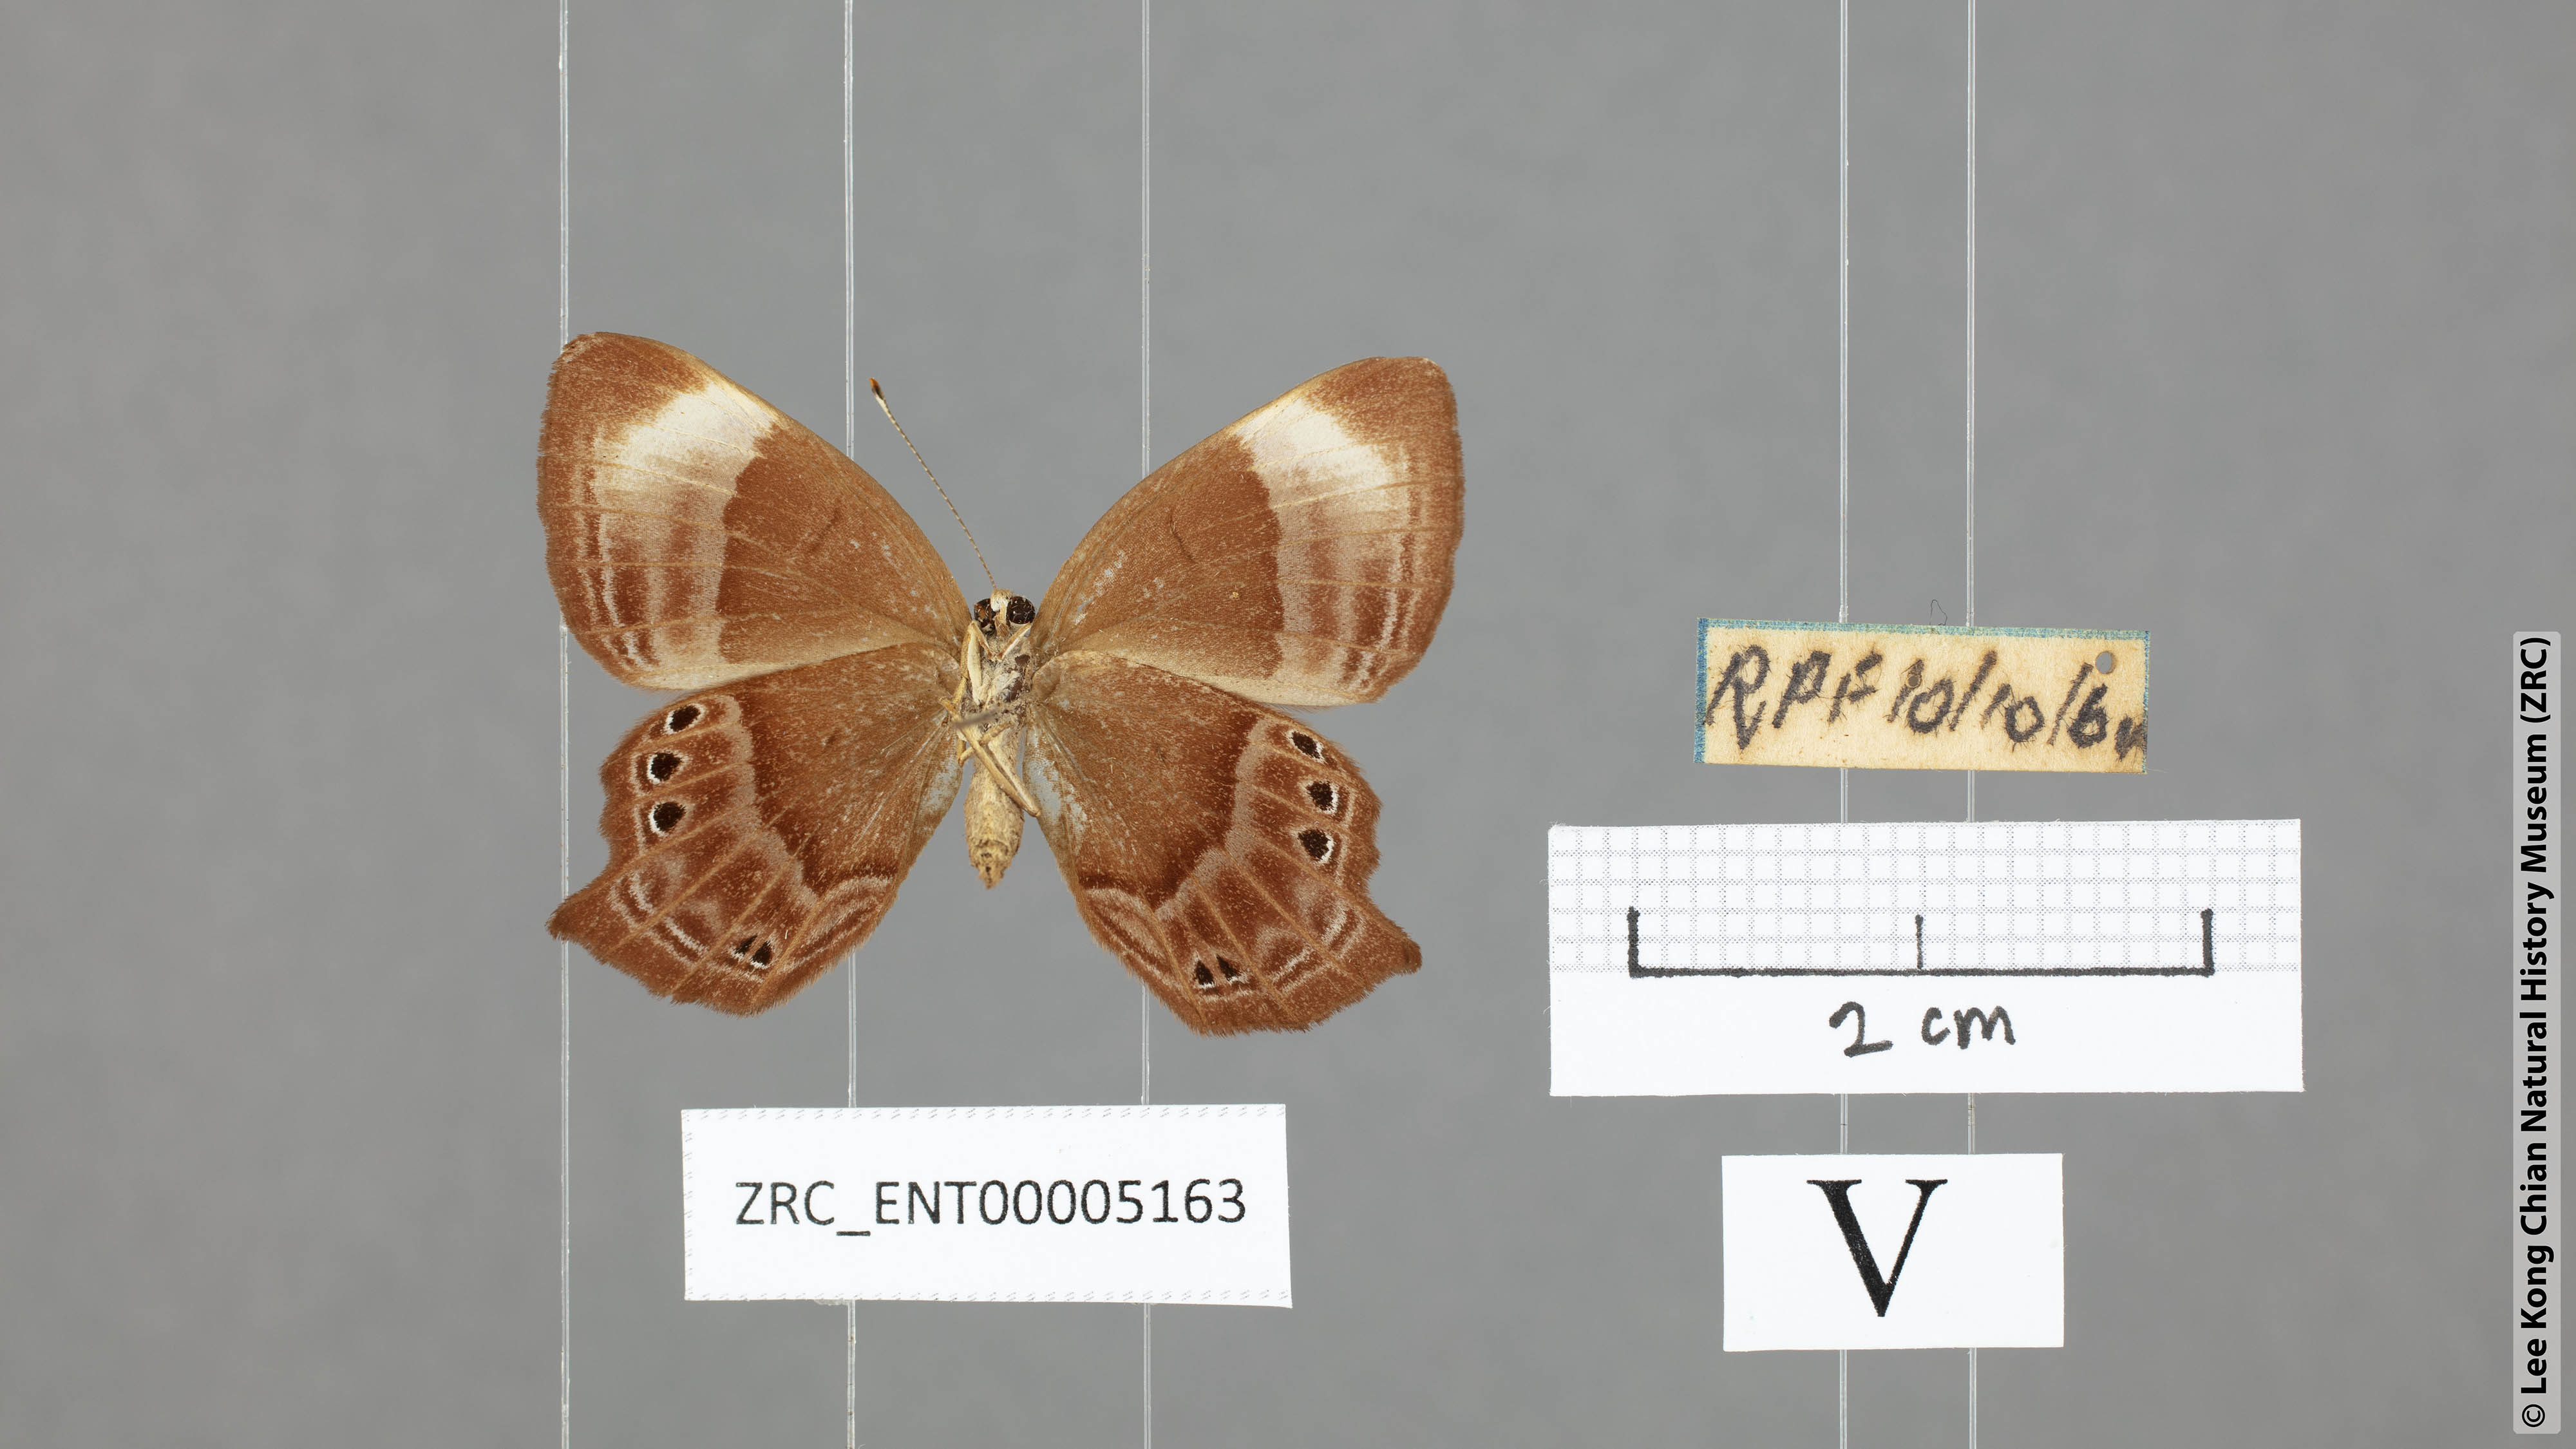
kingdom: Animalia
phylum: Arthropoda
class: Insecta
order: Lepidoptera
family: Lycaenidae
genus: Abisara
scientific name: Abisara kausambi
